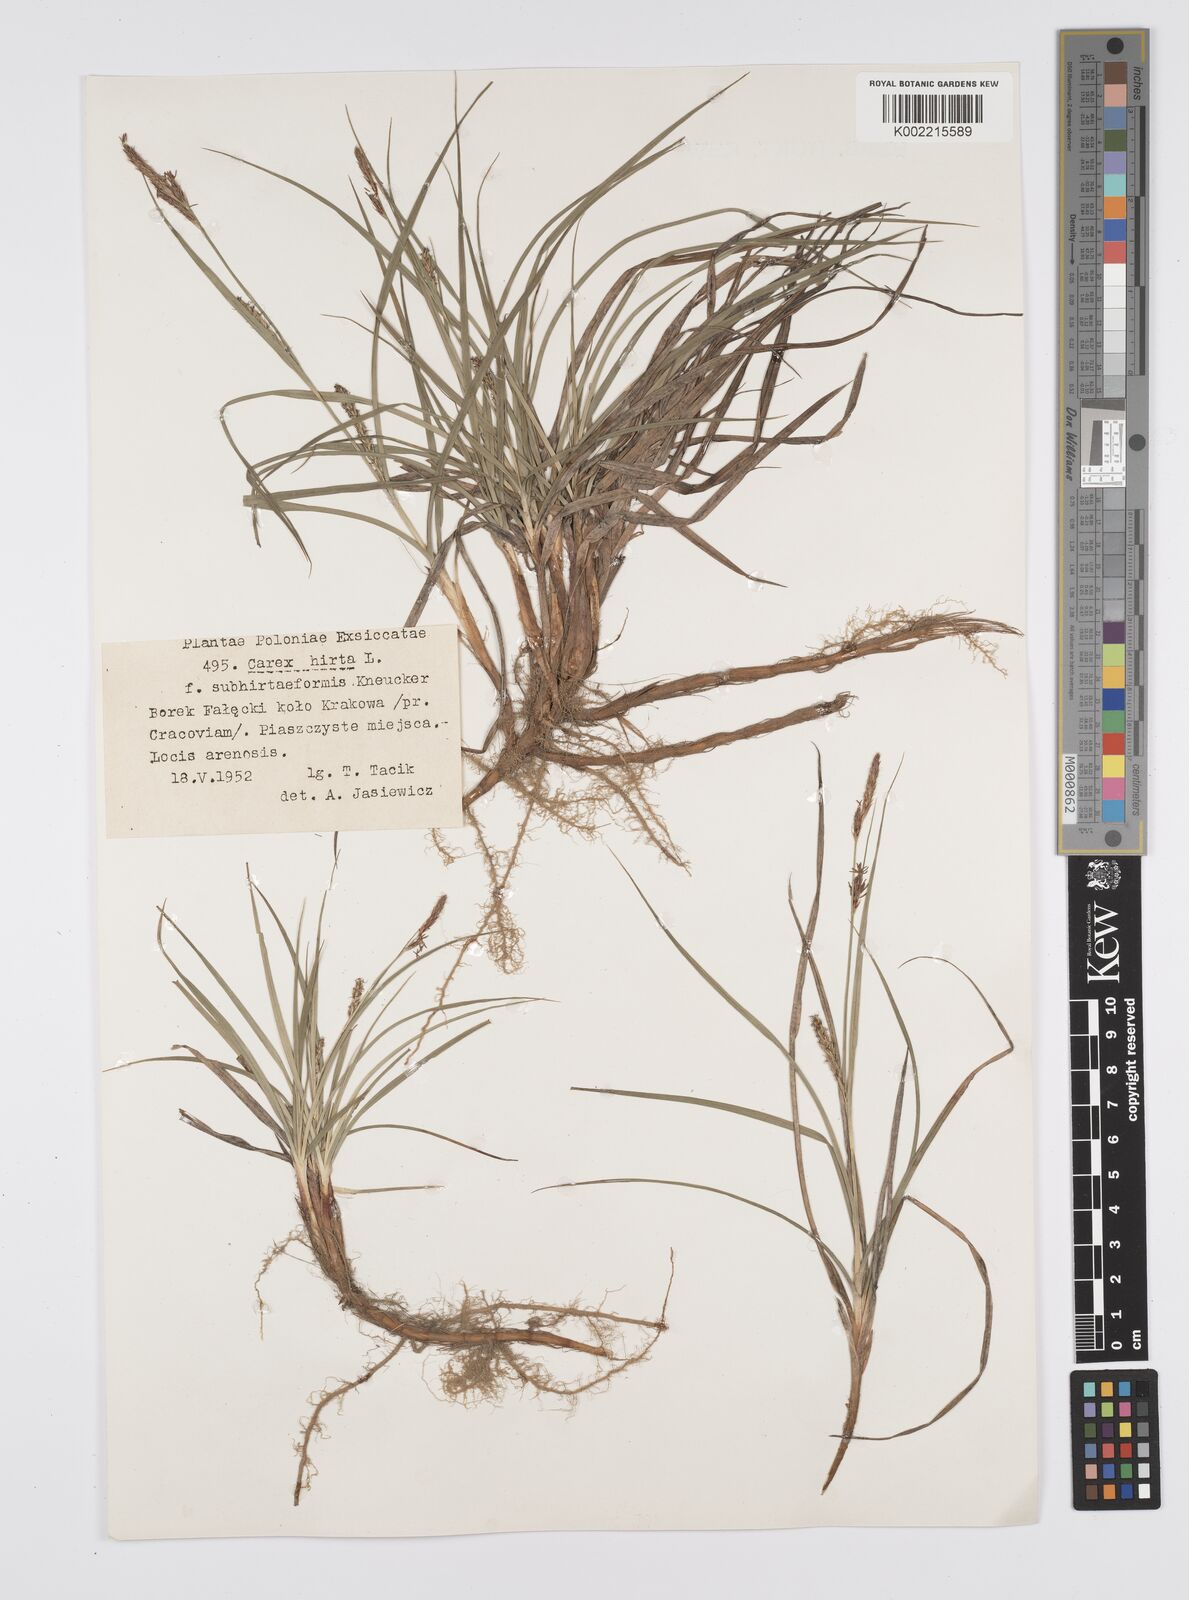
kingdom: Plantae
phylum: Tracheophyta
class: Liliopsida
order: Poales
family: Cyperaceae
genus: Carex
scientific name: Carex hirta
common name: Hairy sedge
